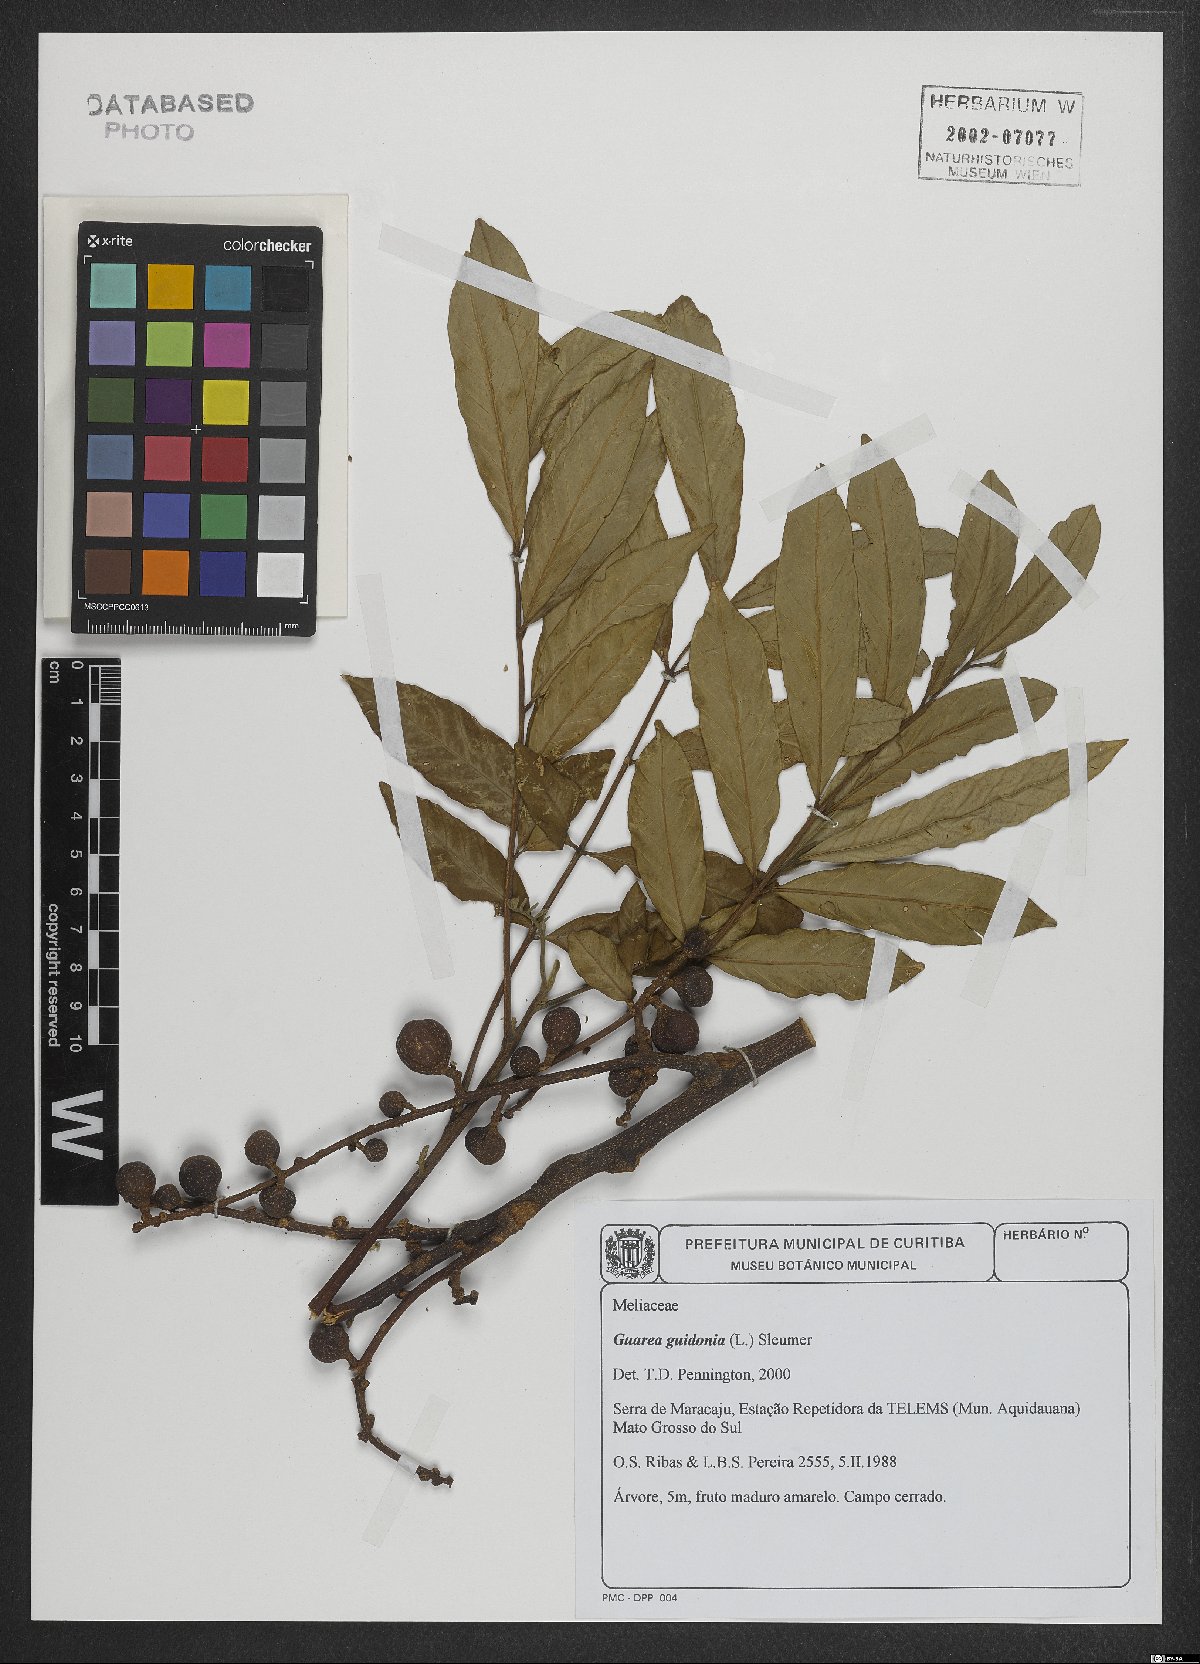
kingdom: Plantae
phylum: Tracheophyta
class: Magnoliopsida
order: Sapindales
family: Meliaceae
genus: Guarea
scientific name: Guarea guidonia
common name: American muskwood
